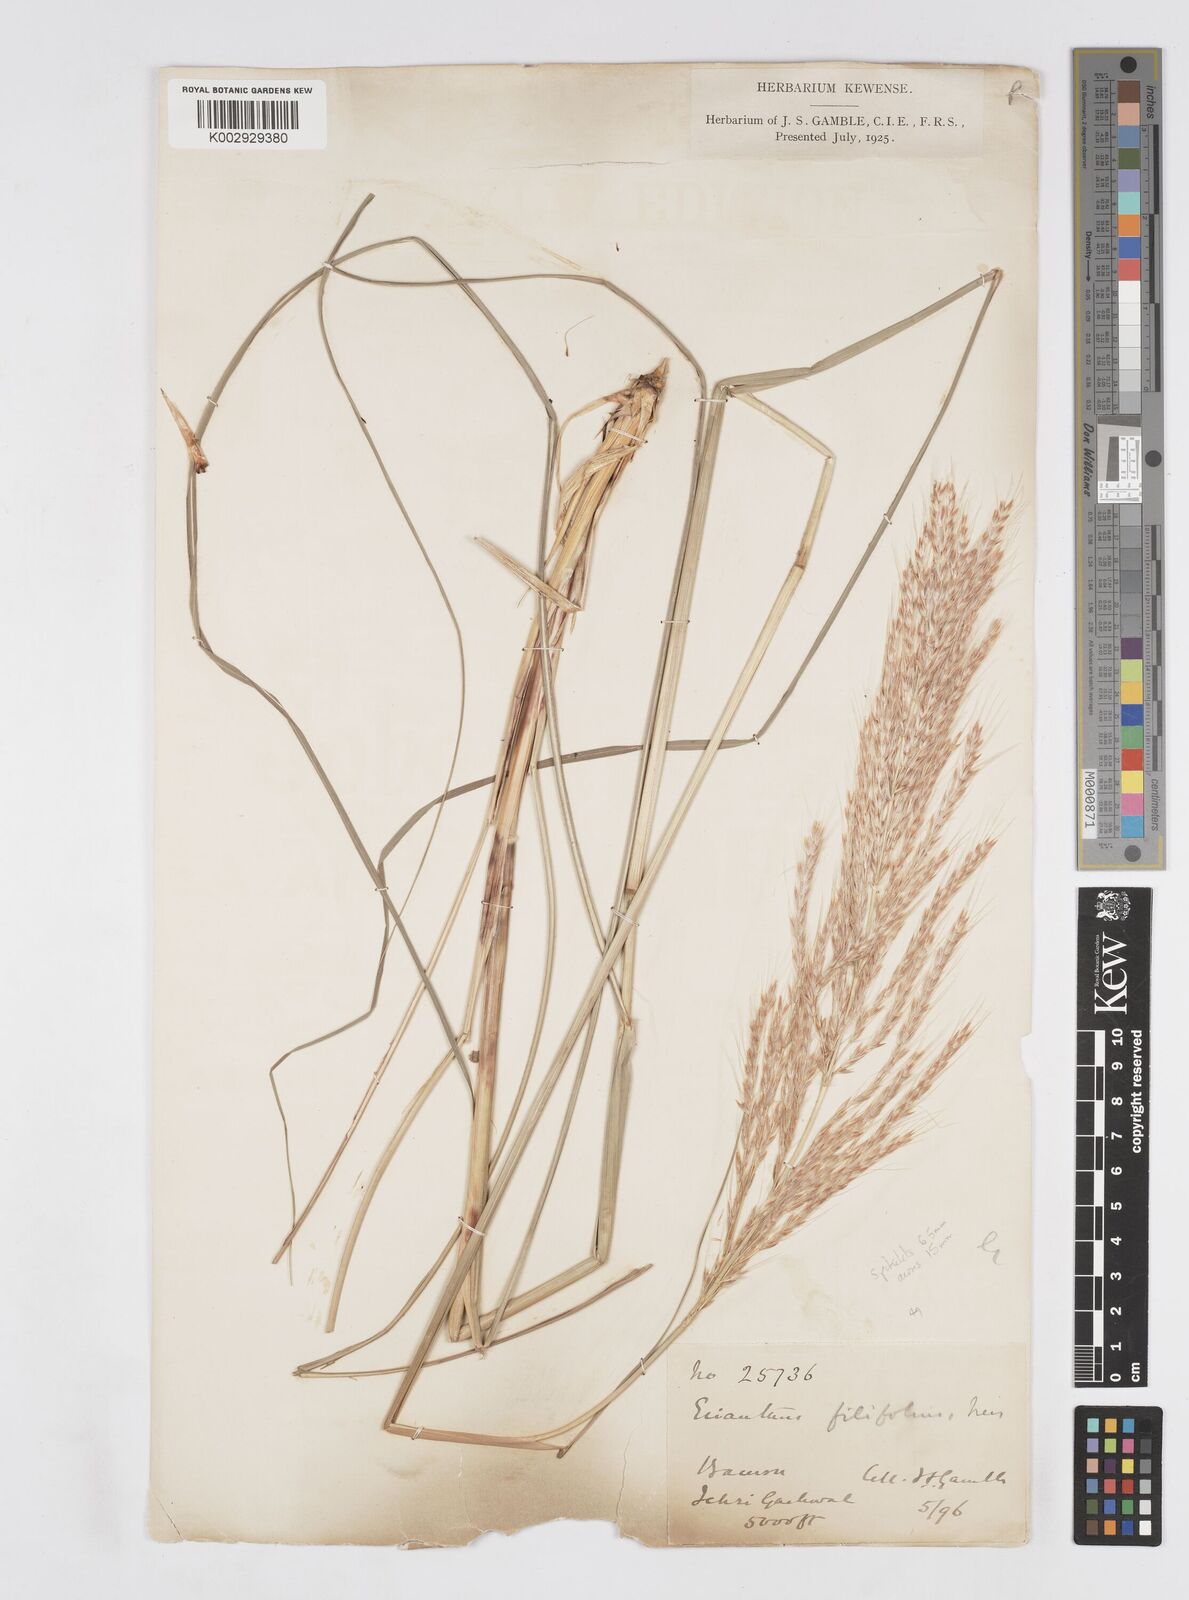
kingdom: Plantae
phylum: Tracheophyta
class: Liliopsida
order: Poales
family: Poaceae
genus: Saccharum
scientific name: Saccharum filifolium
